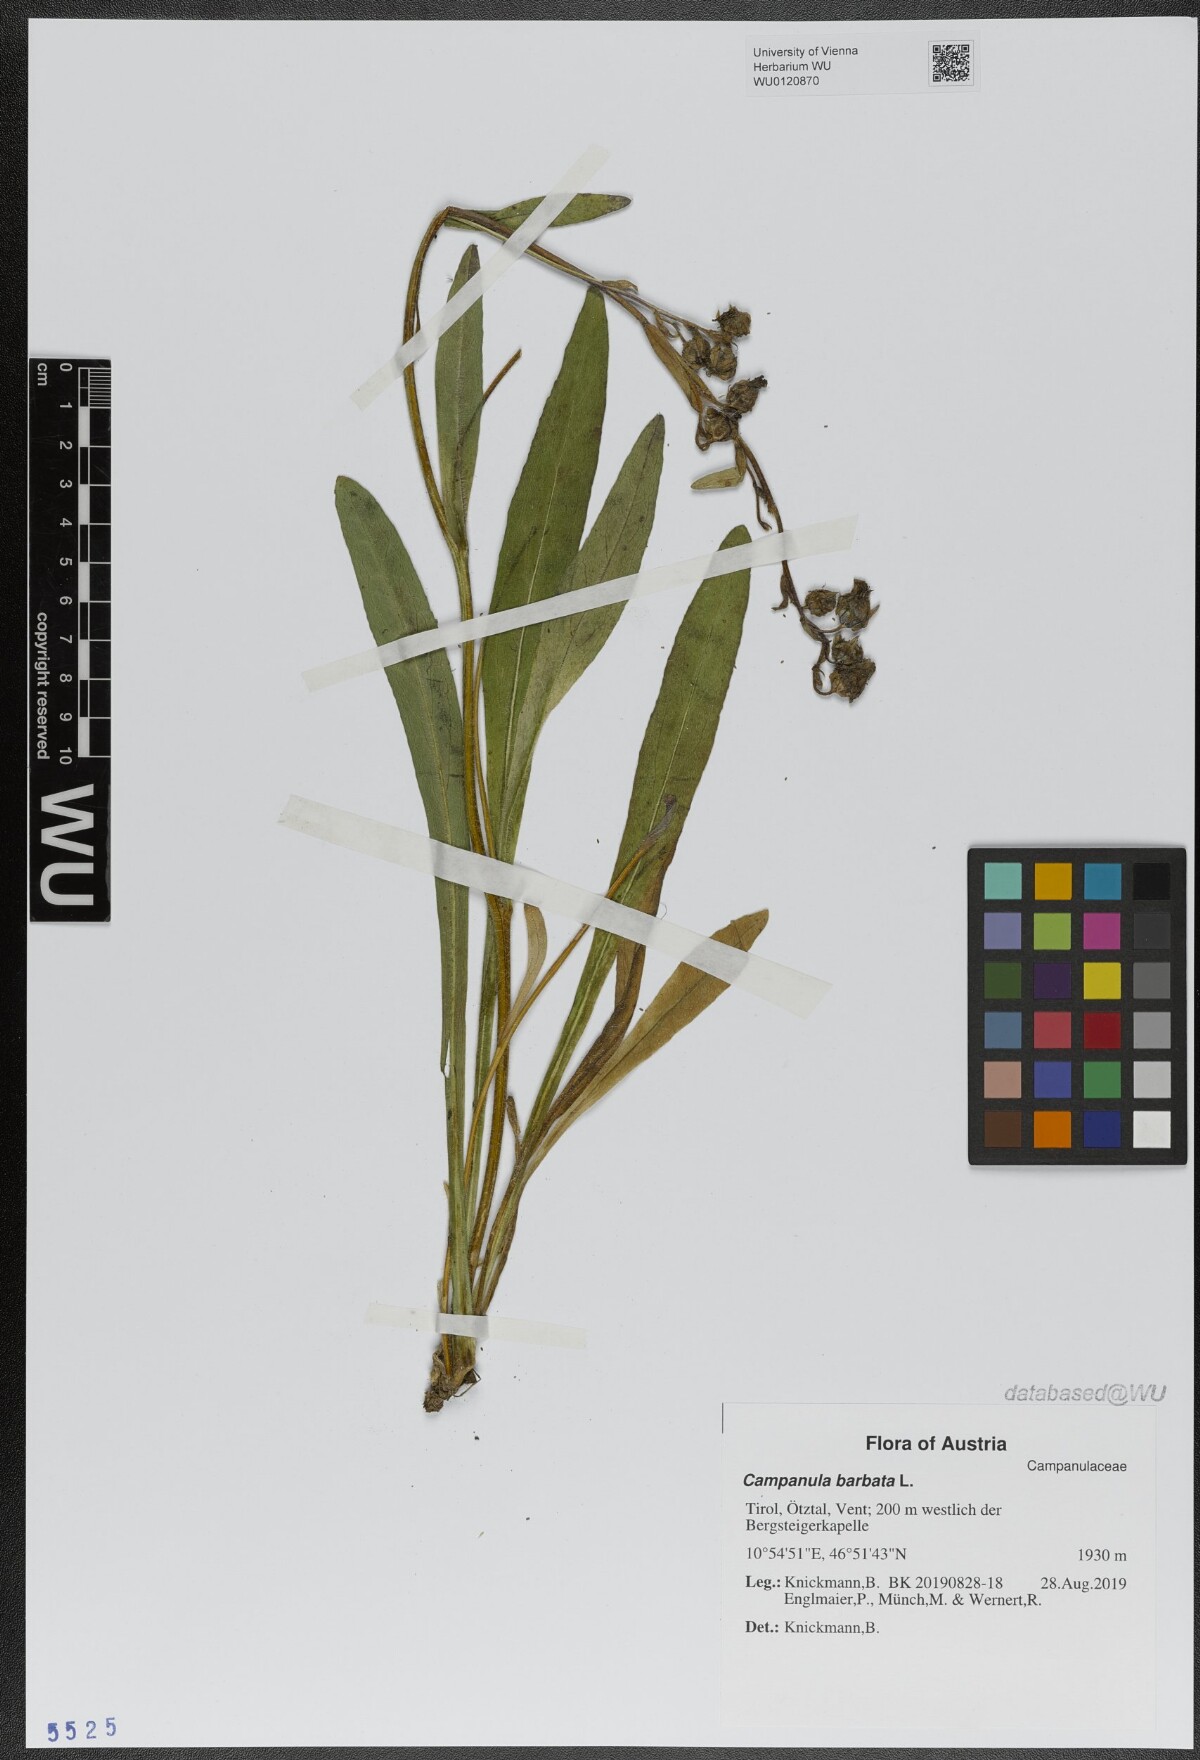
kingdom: Plantae
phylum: Tracheophyta
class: Magnoliopsida
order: Asterales
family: Campanulaceae
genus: Campanula
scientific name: Campanula barbata
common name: Bearded bellflower
